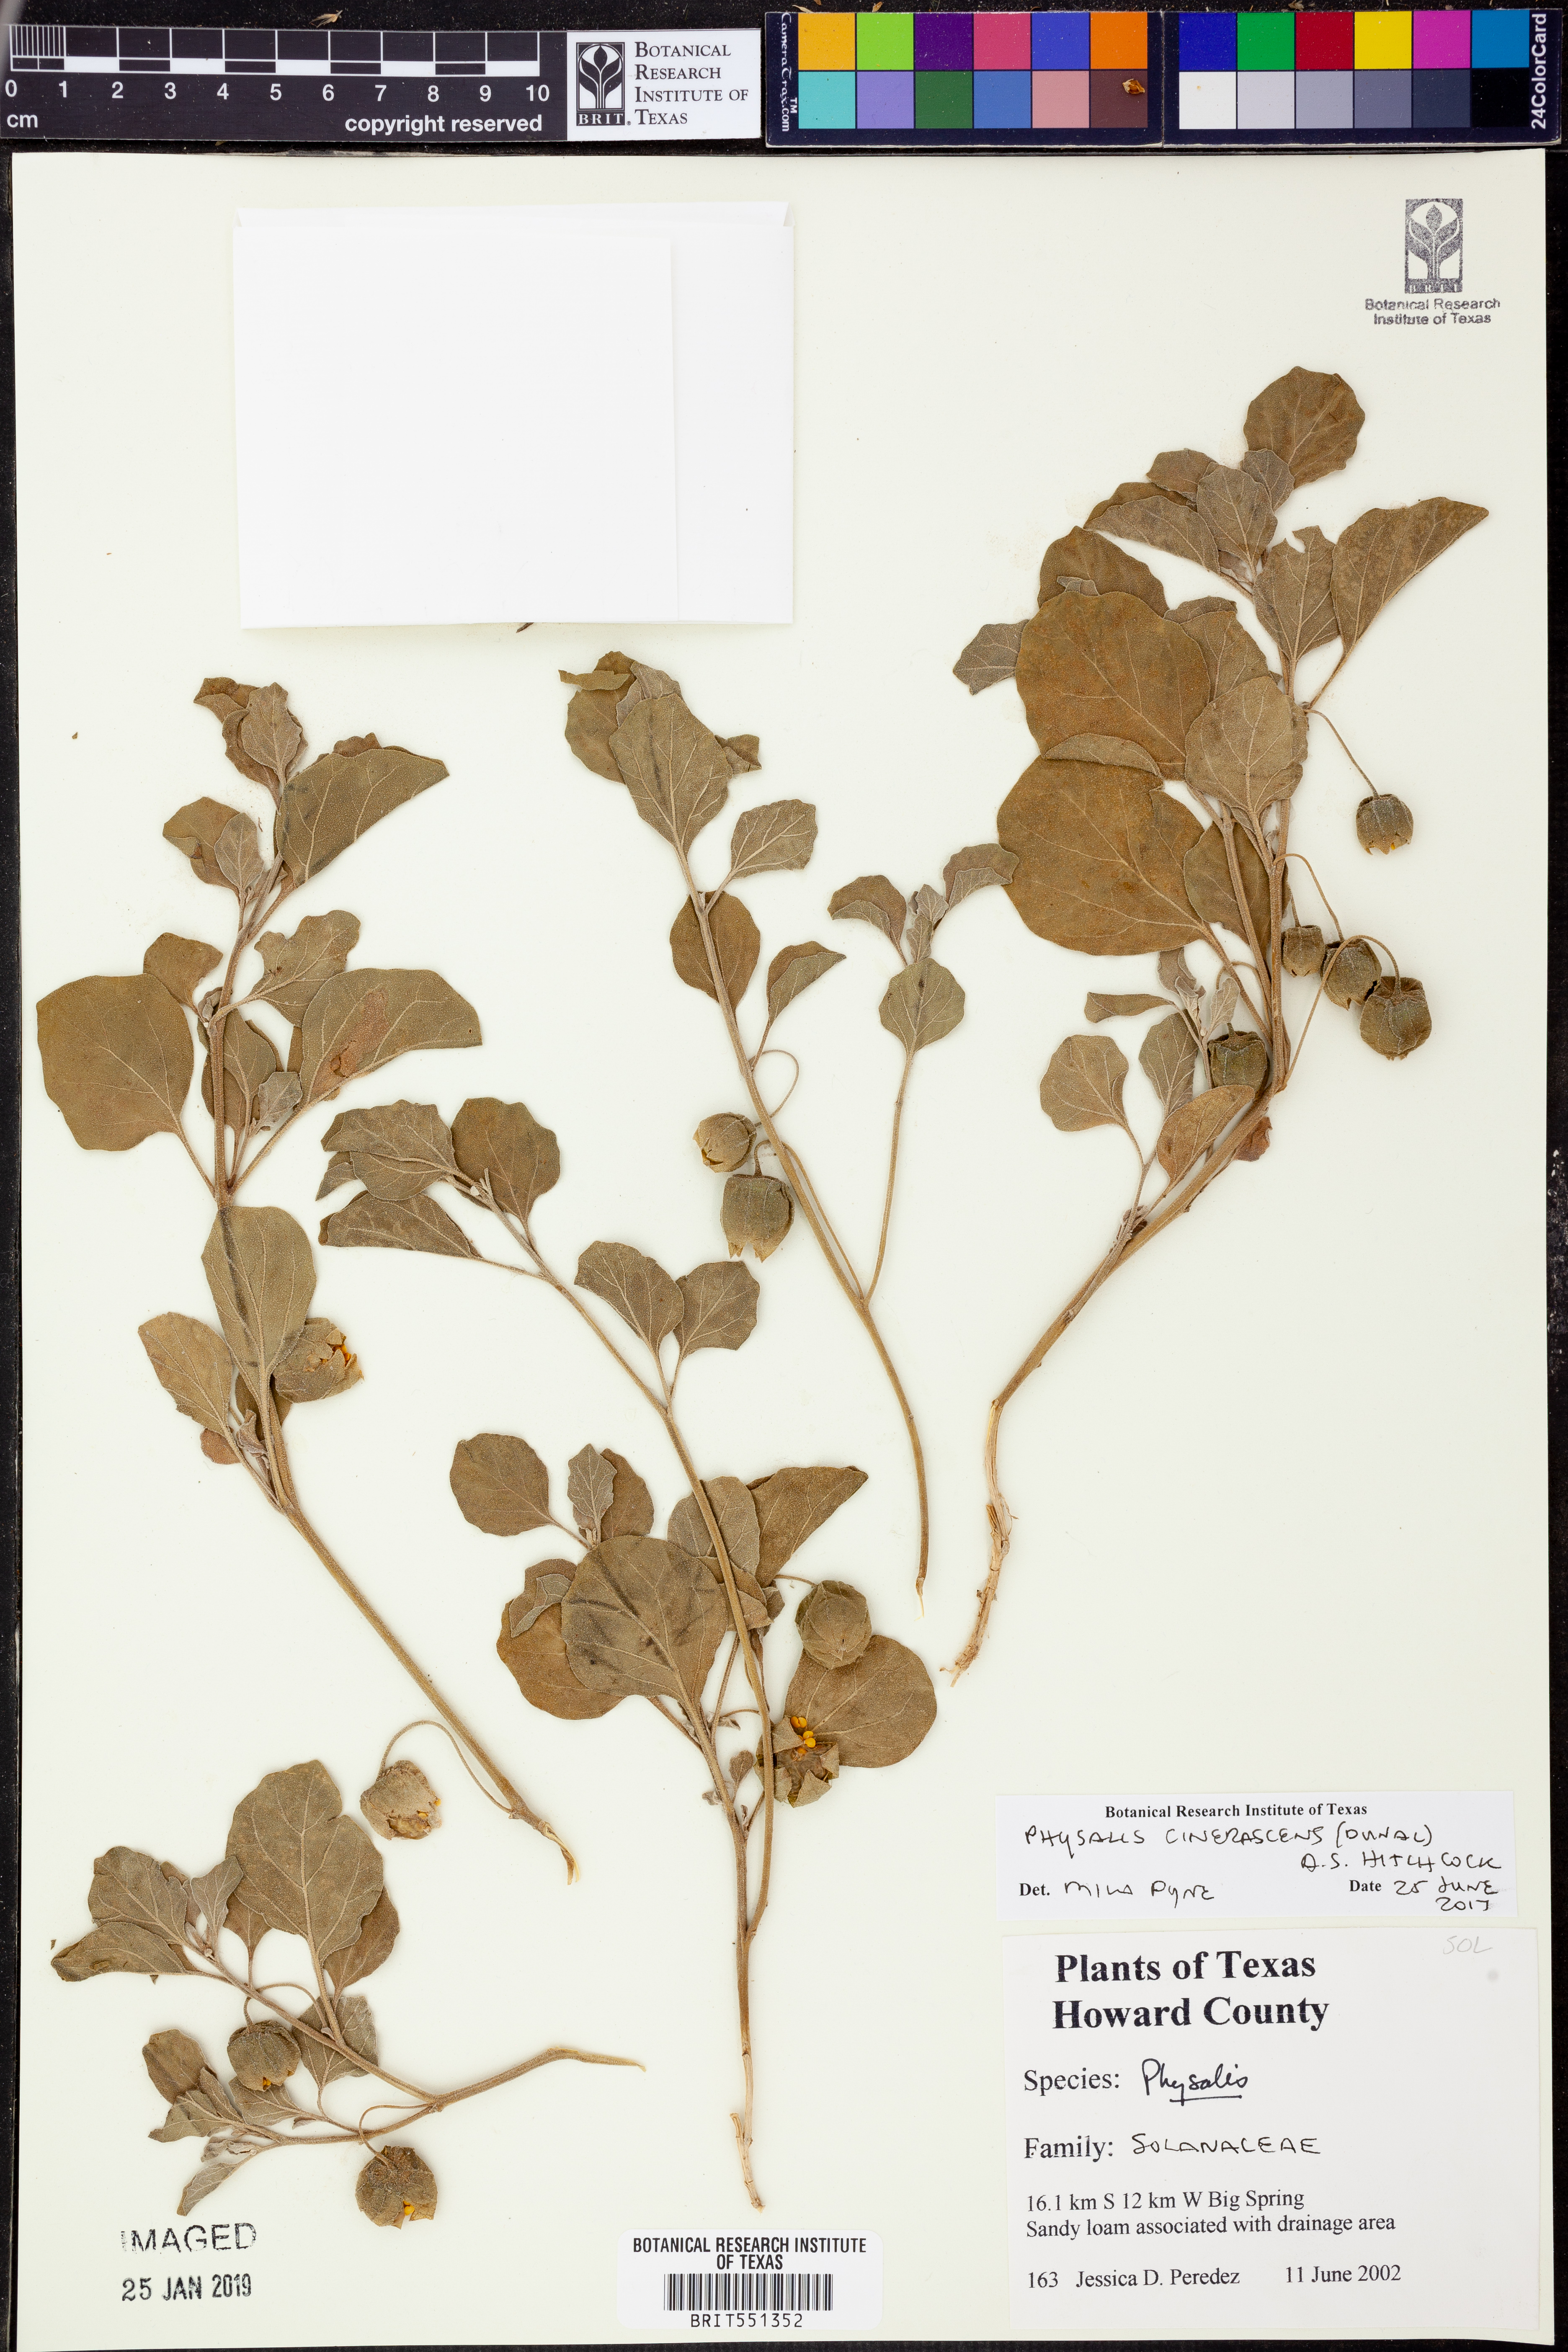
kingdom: Plantae
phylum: Tracheophyta
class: Magnoliopsida
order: Solanales
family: Solanaceae
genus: Physalis
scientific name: Physalis cinerascens
